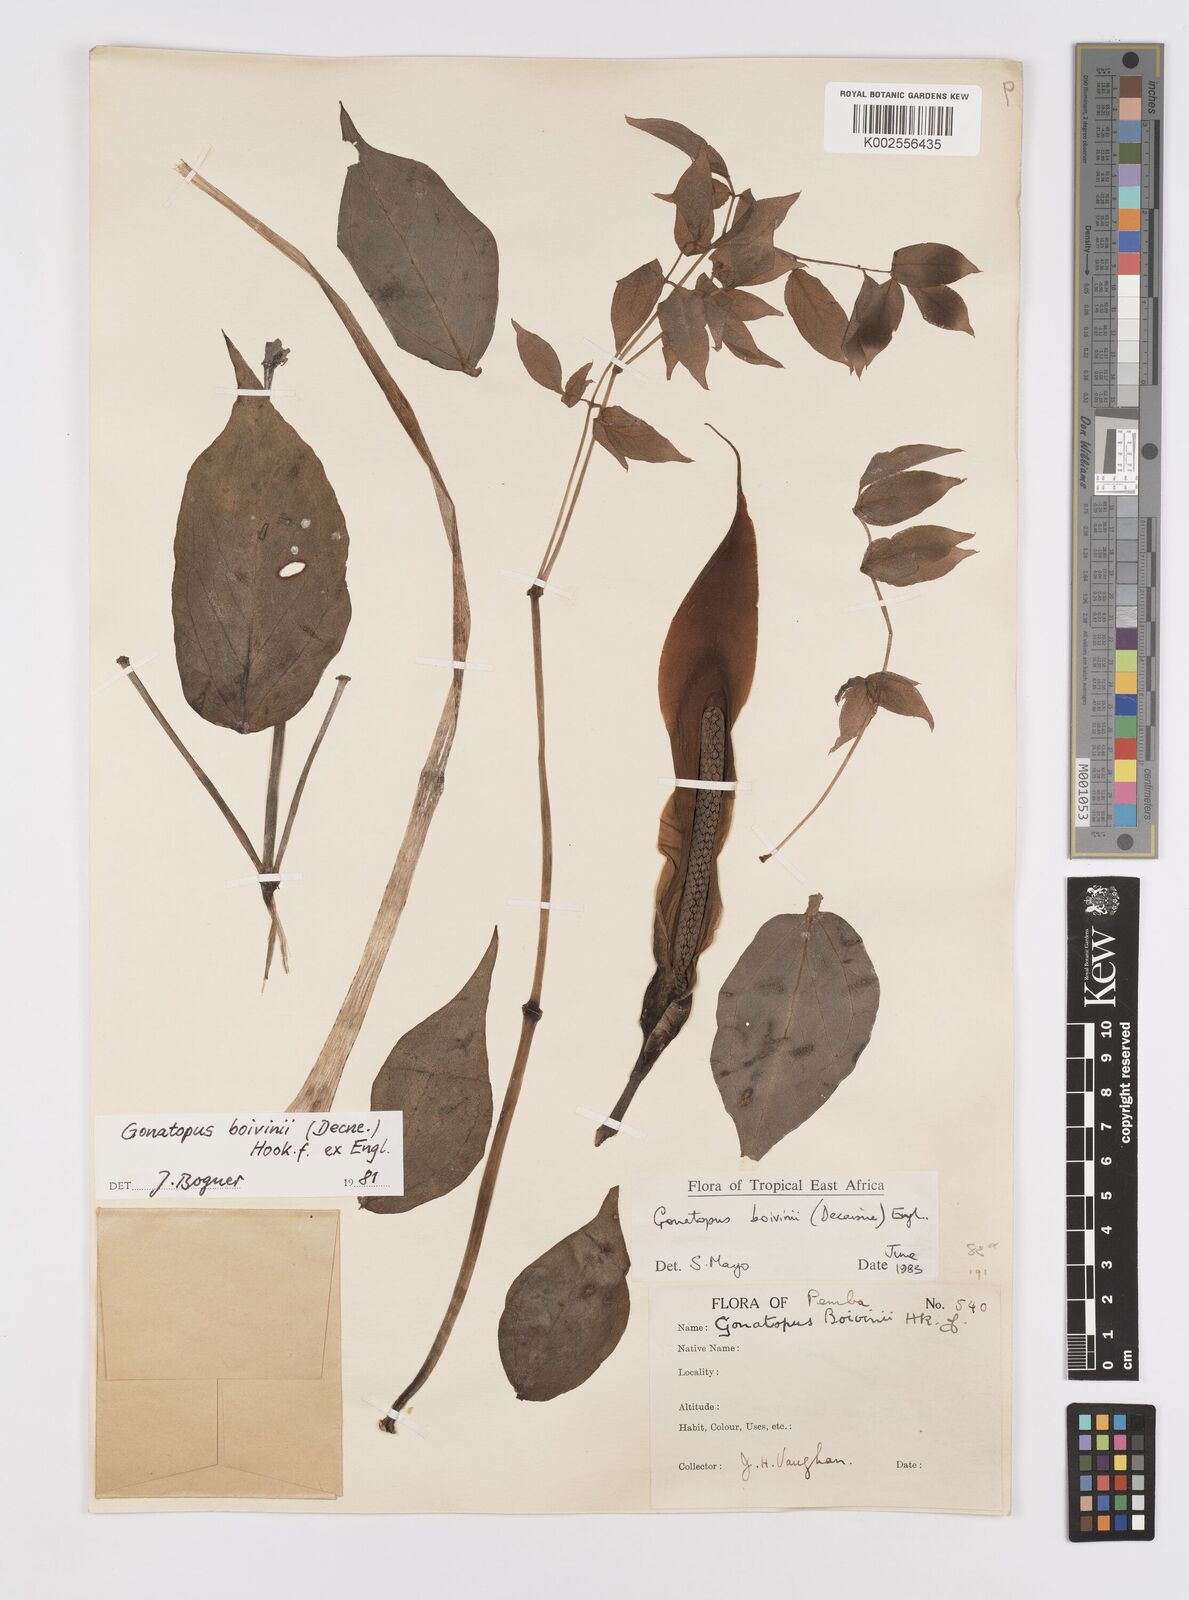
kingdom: Plantae
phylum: Tracheophyta
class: Liliopsida
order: Alismatales
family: Araceae
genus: Gonatopus
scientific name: Gonatopus boivinii
